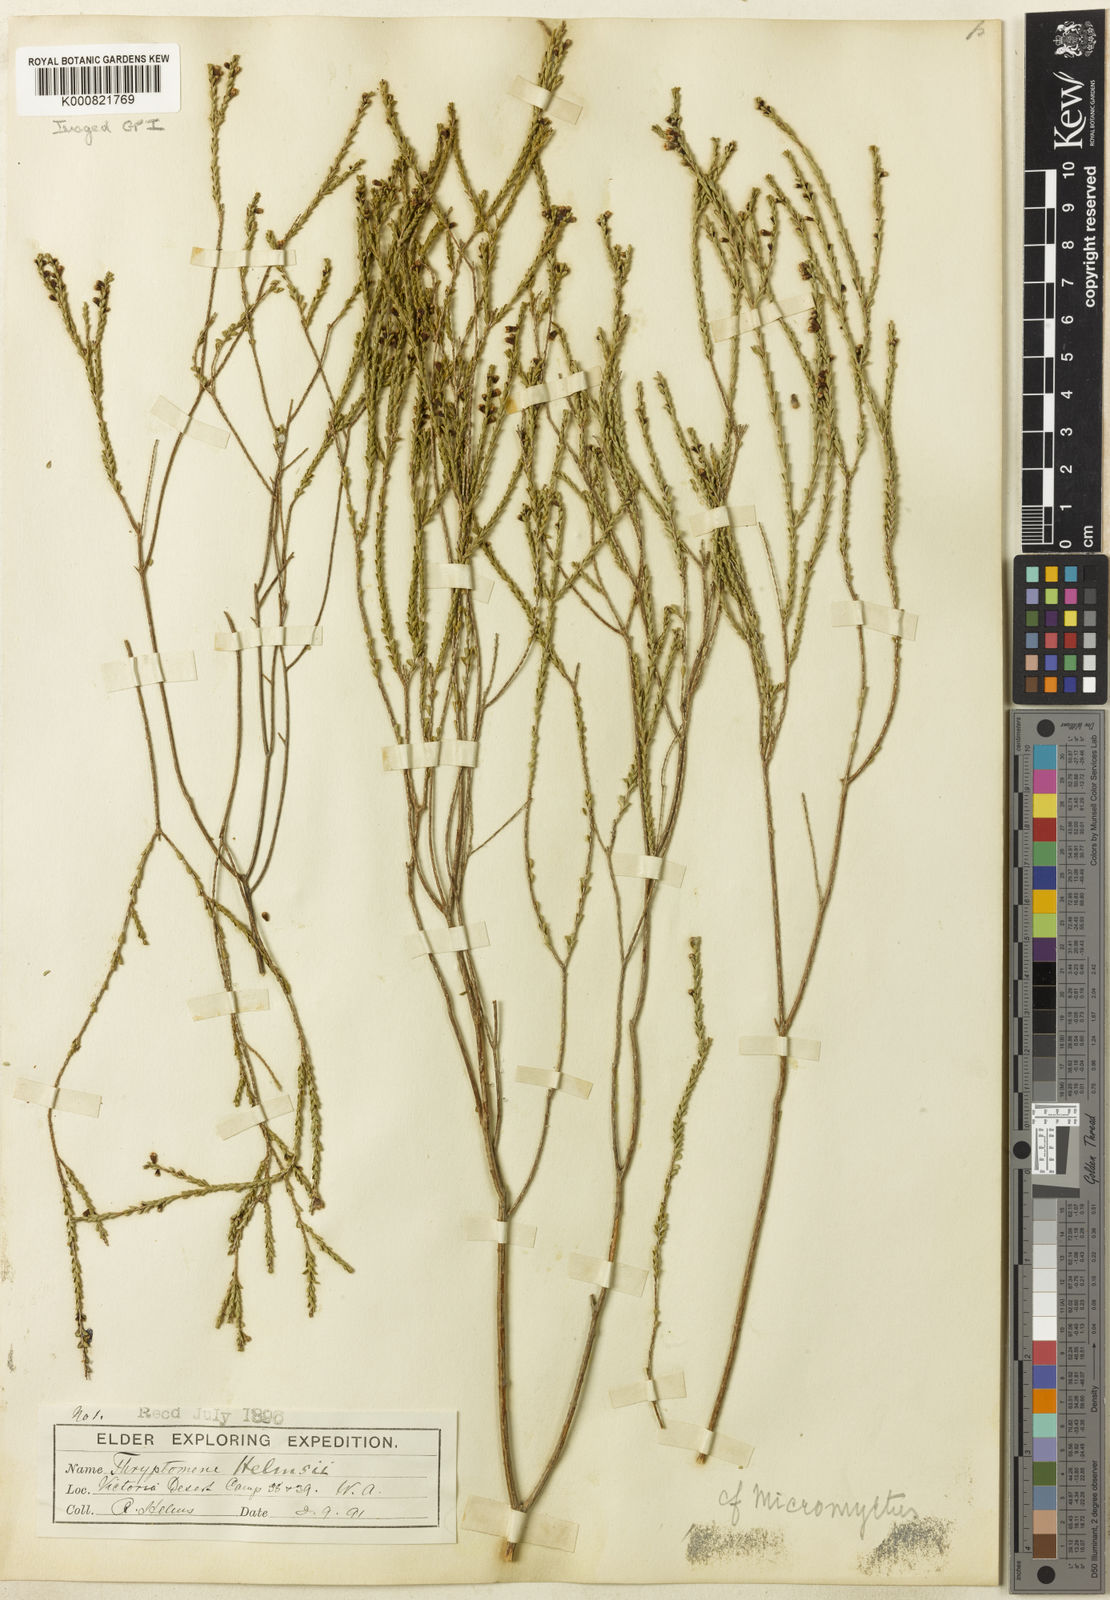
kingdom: Plantae
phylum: Tracheophyta
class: Magnoliopsida
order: Myrtales
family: Myrtaceae
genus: Micromyrtus
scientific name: Micromyrtus helmsii
